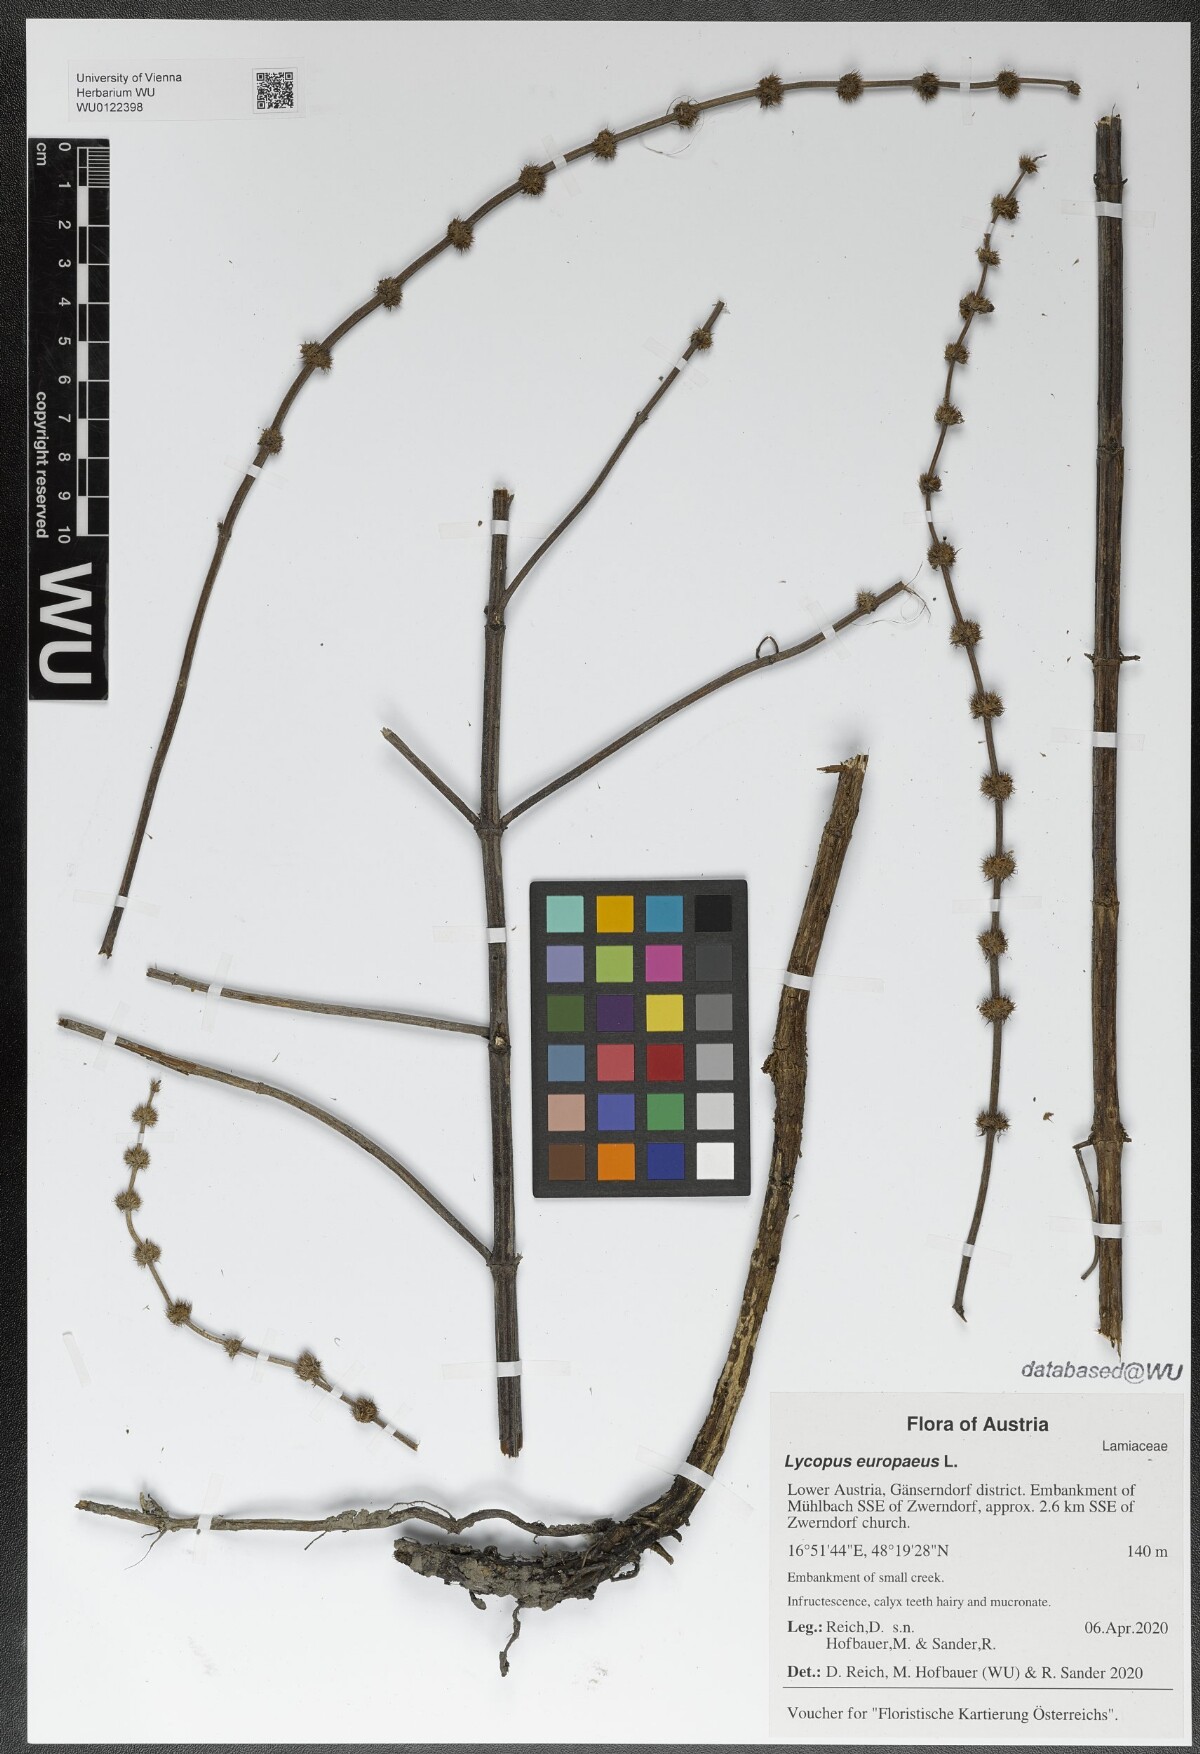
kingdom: Plantae
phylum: Tracheophyta
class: Magnoliopsida
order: Lamiales
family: Lamiaceae
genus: Lycopus
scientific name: Lycopus europaeus
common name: European bugleweed
